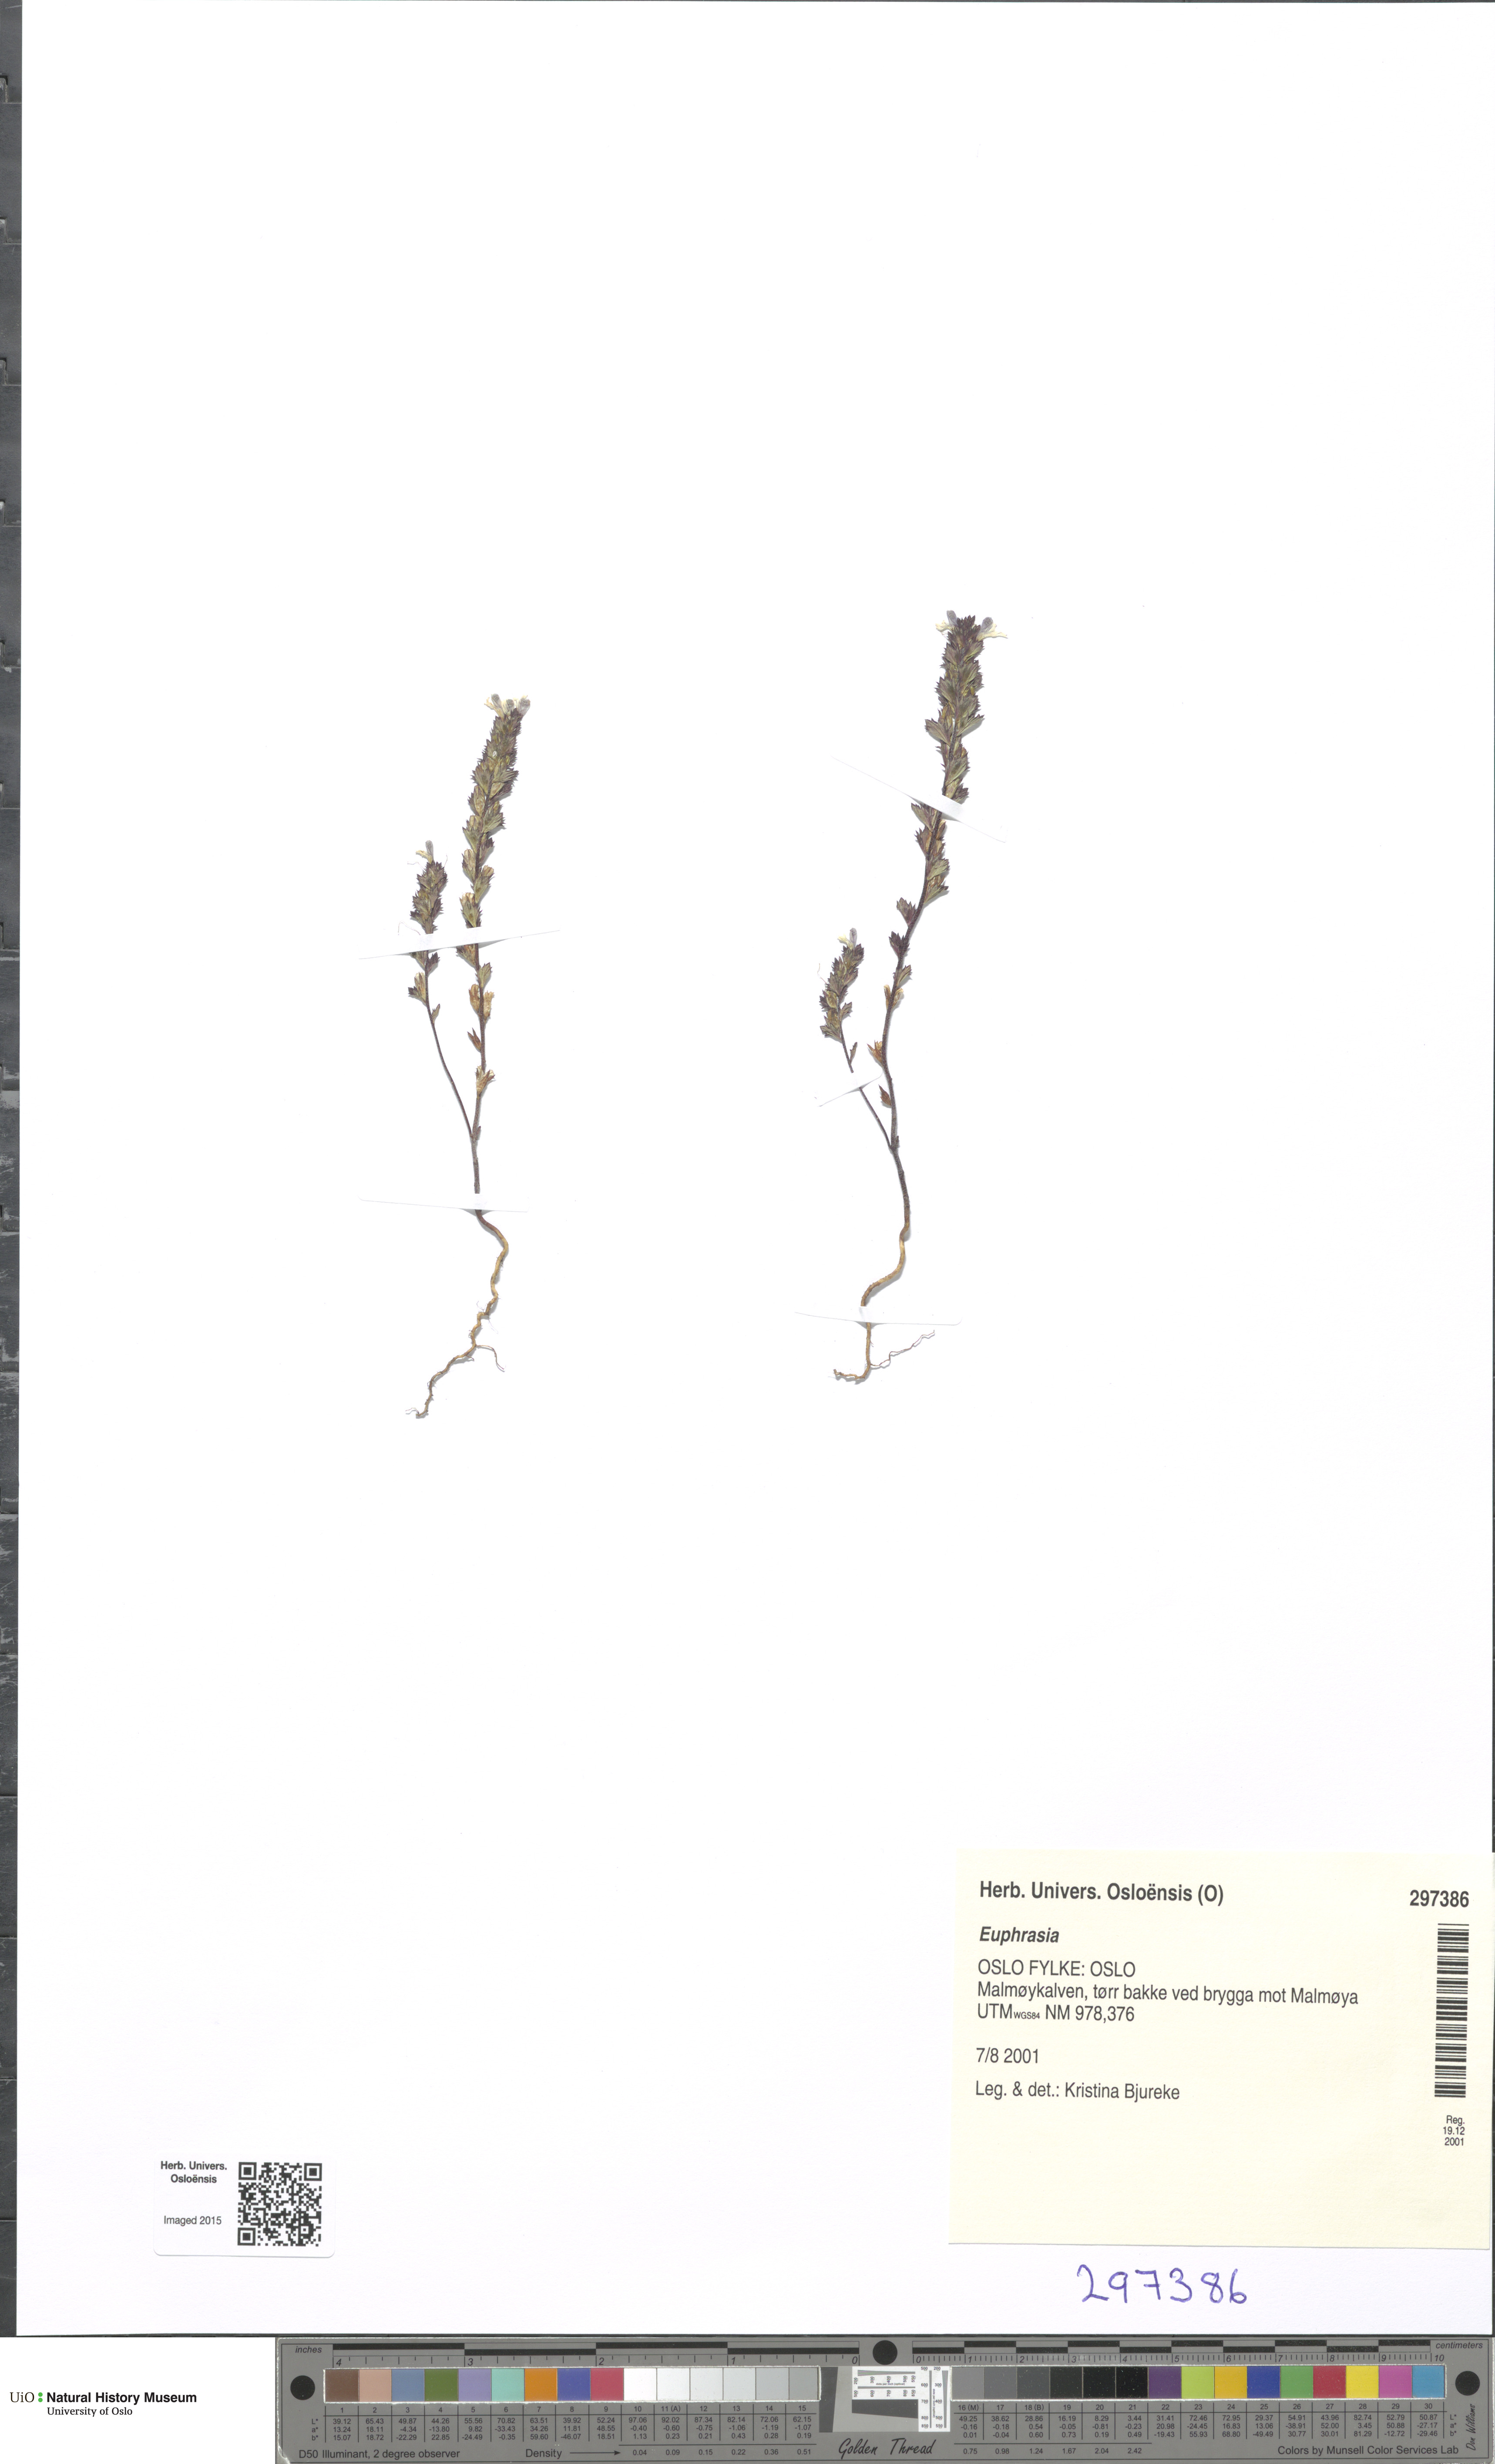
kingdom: Plantae
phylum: Tracheophyta
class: Magnoliopsida
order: Lamiales
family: Orobanchaceae
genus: Euphrasia
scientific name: Euphrasia
